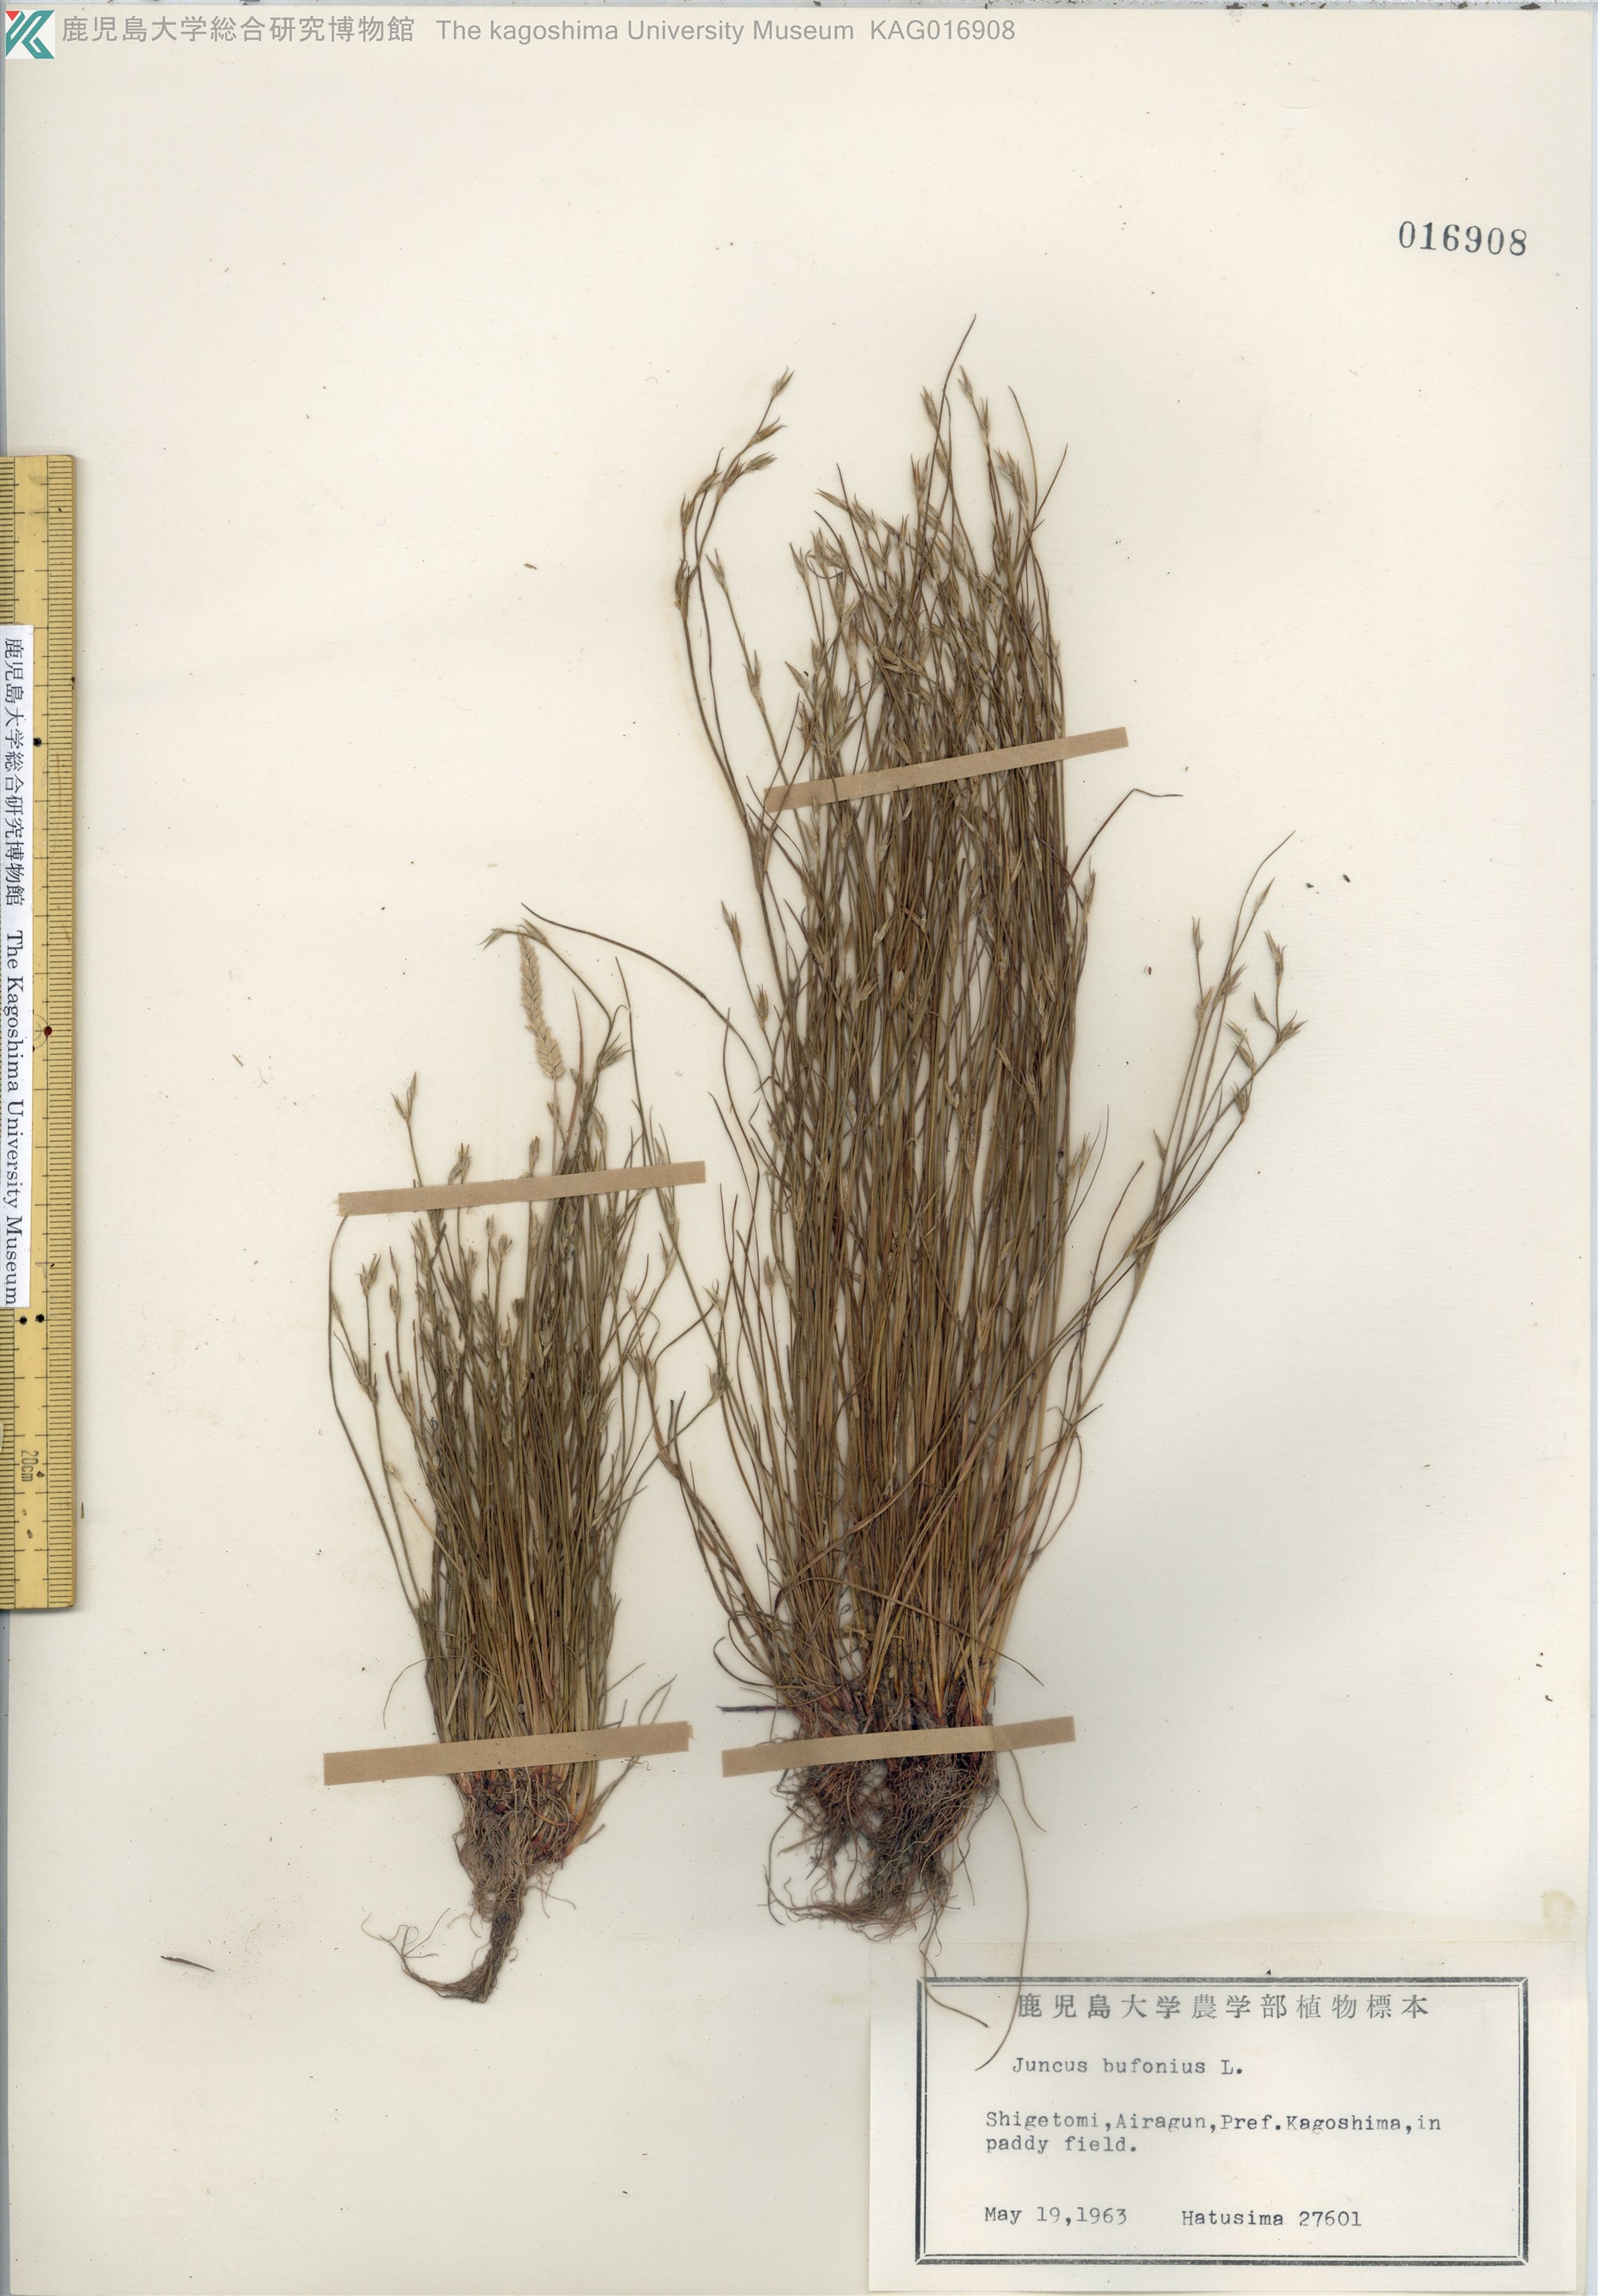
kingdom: Plantae
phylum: Tracheophyta
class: Liliopsida
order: Poales
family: Juncaceae
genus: Juncus
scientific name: Juncus bufonius
